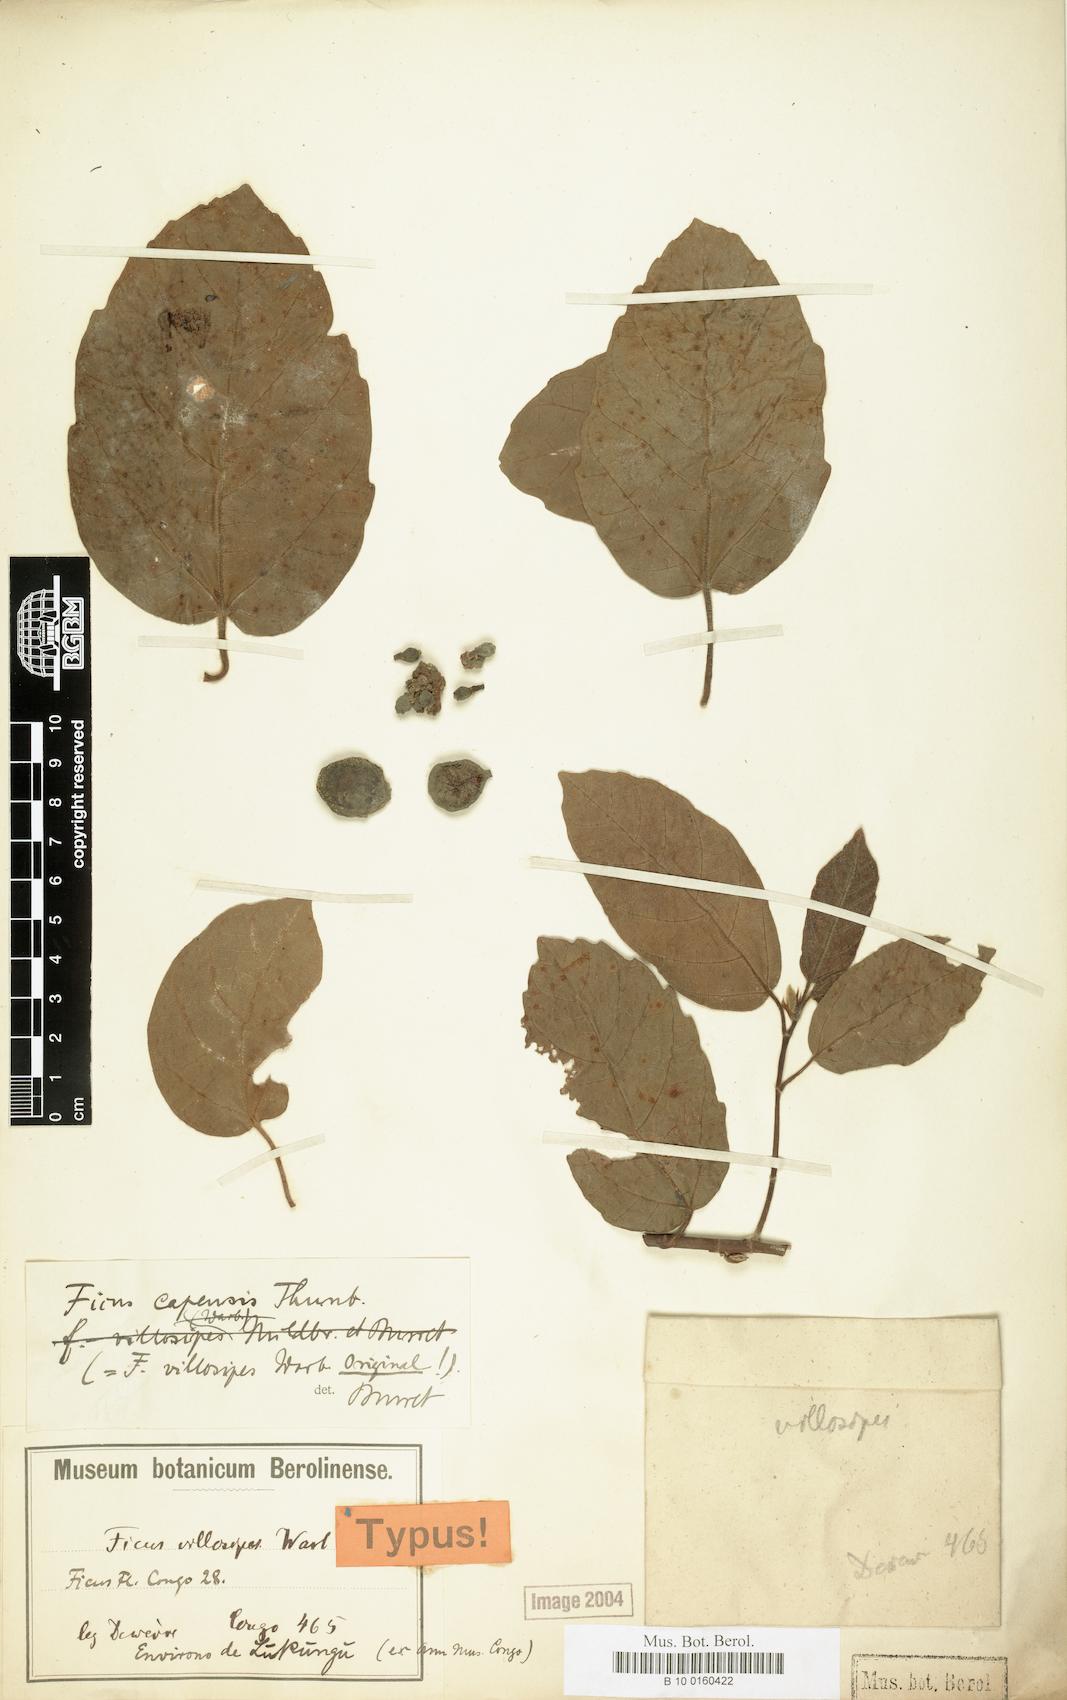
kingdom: Plantae
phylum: Tracheophyta
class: Magnoliopsida
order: Rosales
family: Moraceae
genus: Ficus
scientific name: Ficus sur
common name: Cape fig
